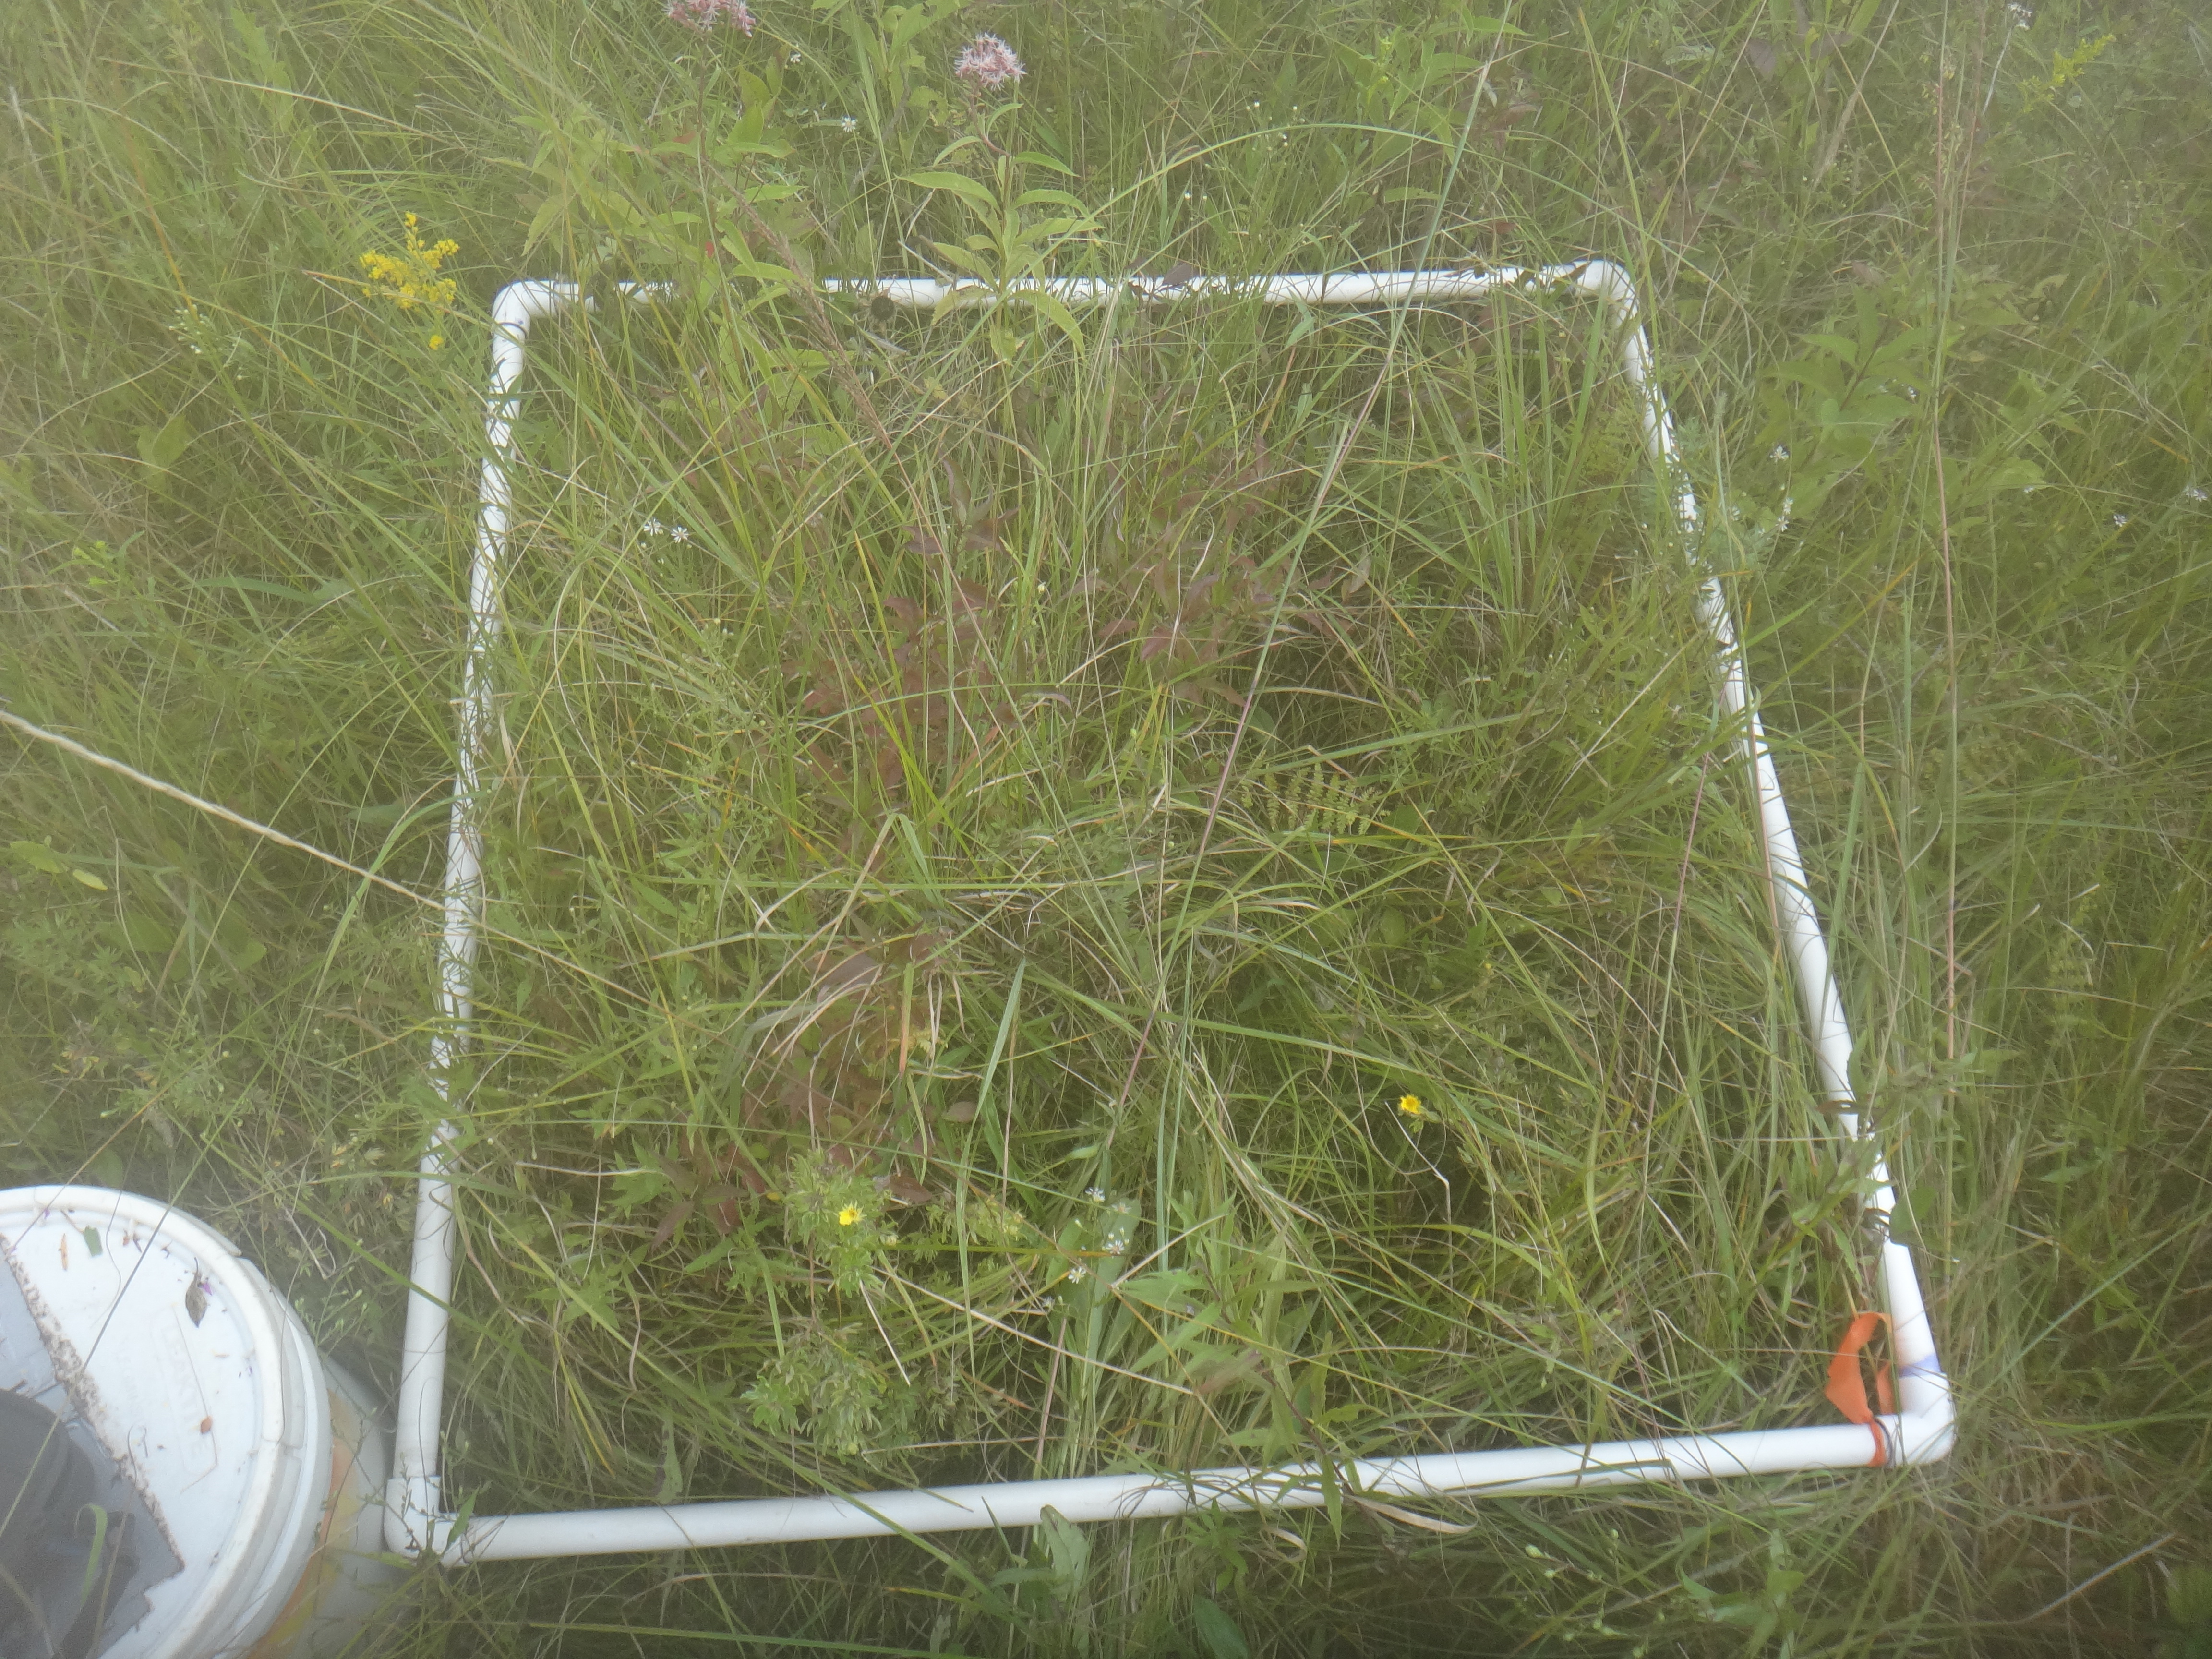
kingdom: Plantae
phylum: Tracheophyta
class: Magnoliopsida
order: Gentianales
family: Gentianaceae
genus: Gentianopsis
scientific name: Gentianopsis virgata
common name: Lesser fringed-gentian
